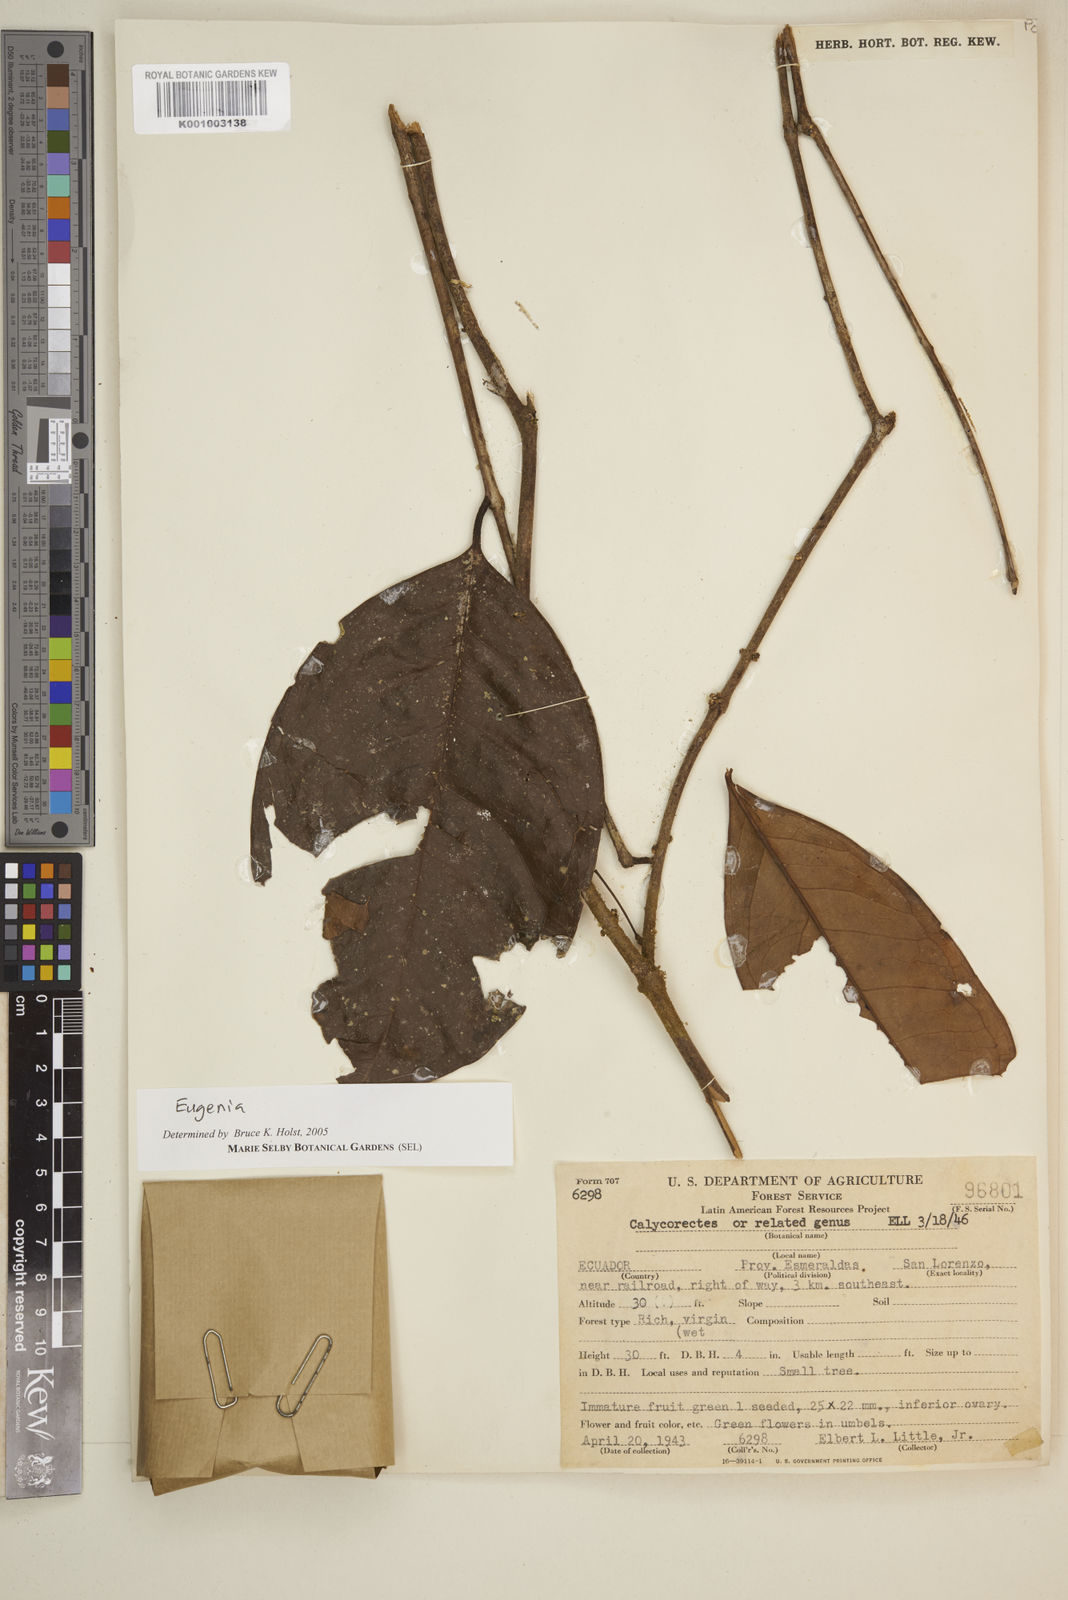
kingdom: Plantae
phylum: Tracheophyta
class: Magnoliopsida
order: Myrtales
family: Myrtaceae
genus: Eugenia
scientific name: Eugenia
